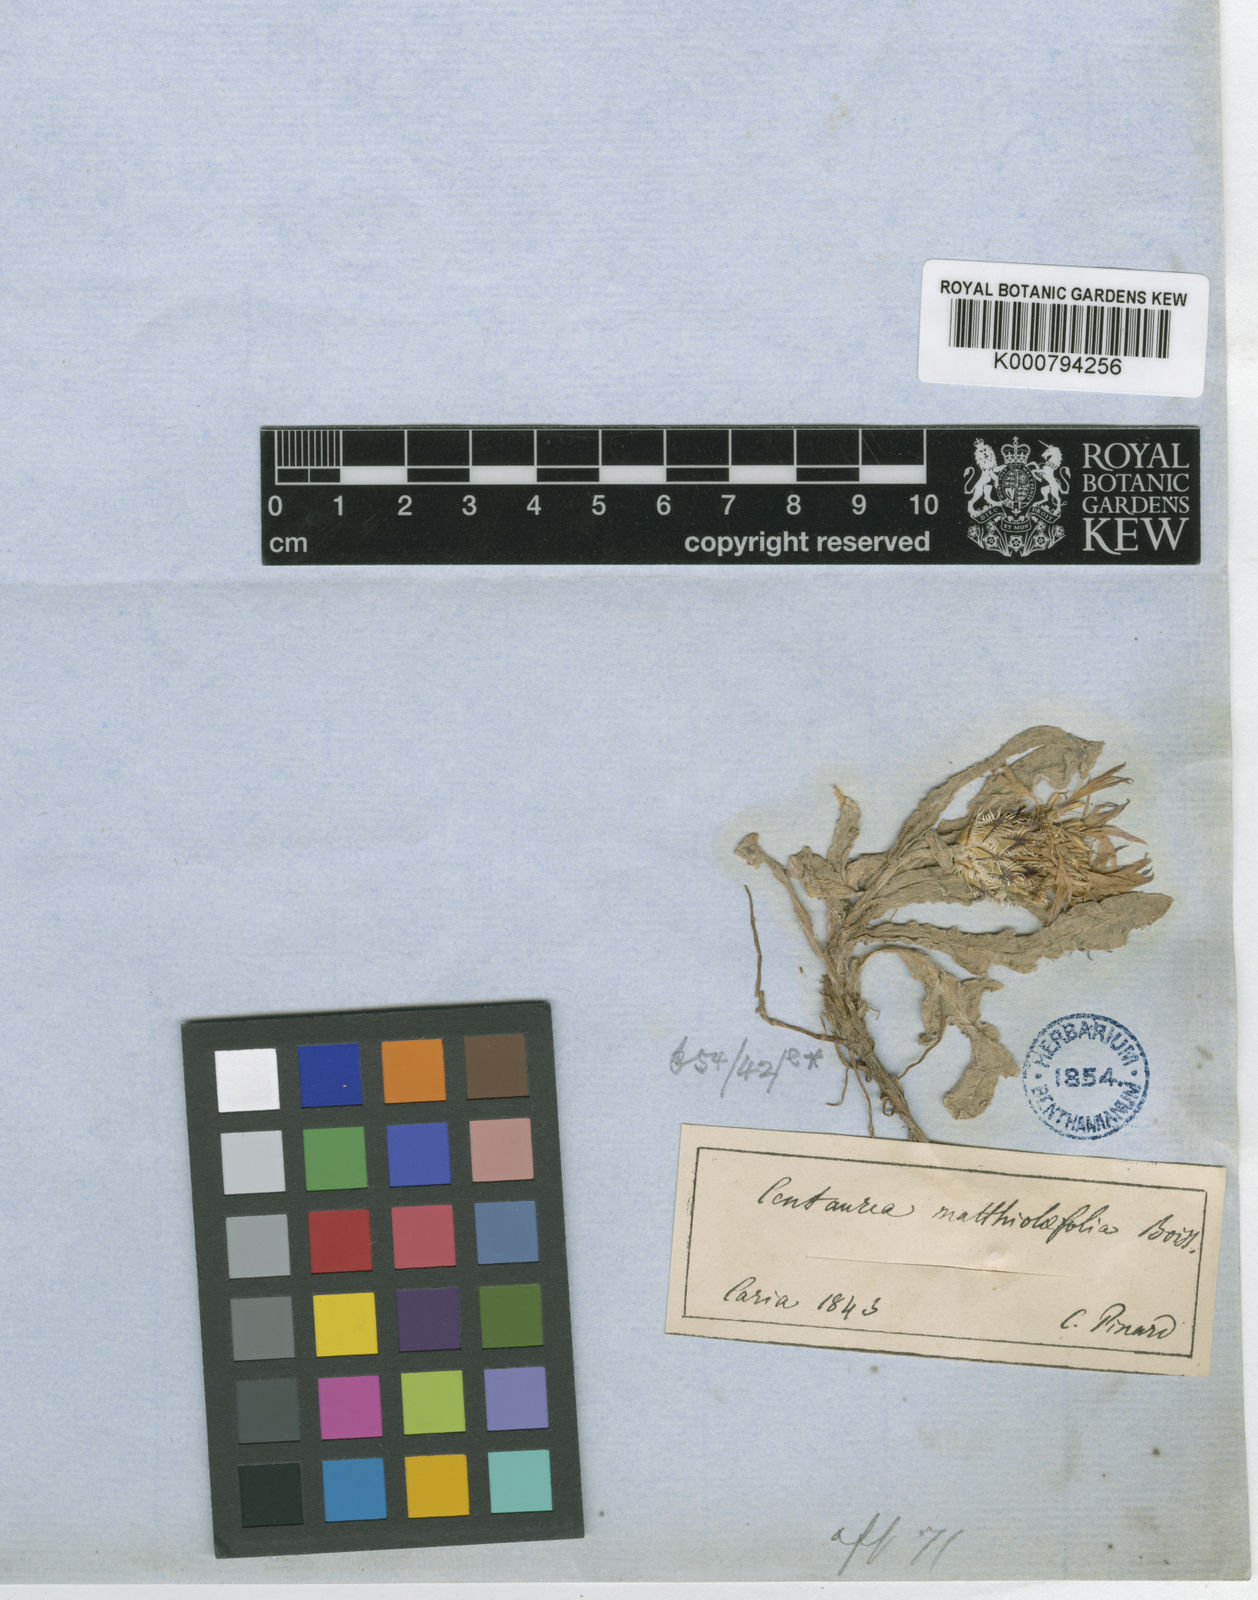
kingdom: Plantae
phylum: Tracheophyta
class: Magnoliopsida
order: Asterales
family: Asteraceae
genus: Centaurea
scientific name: Centaurea matthiolifolia
